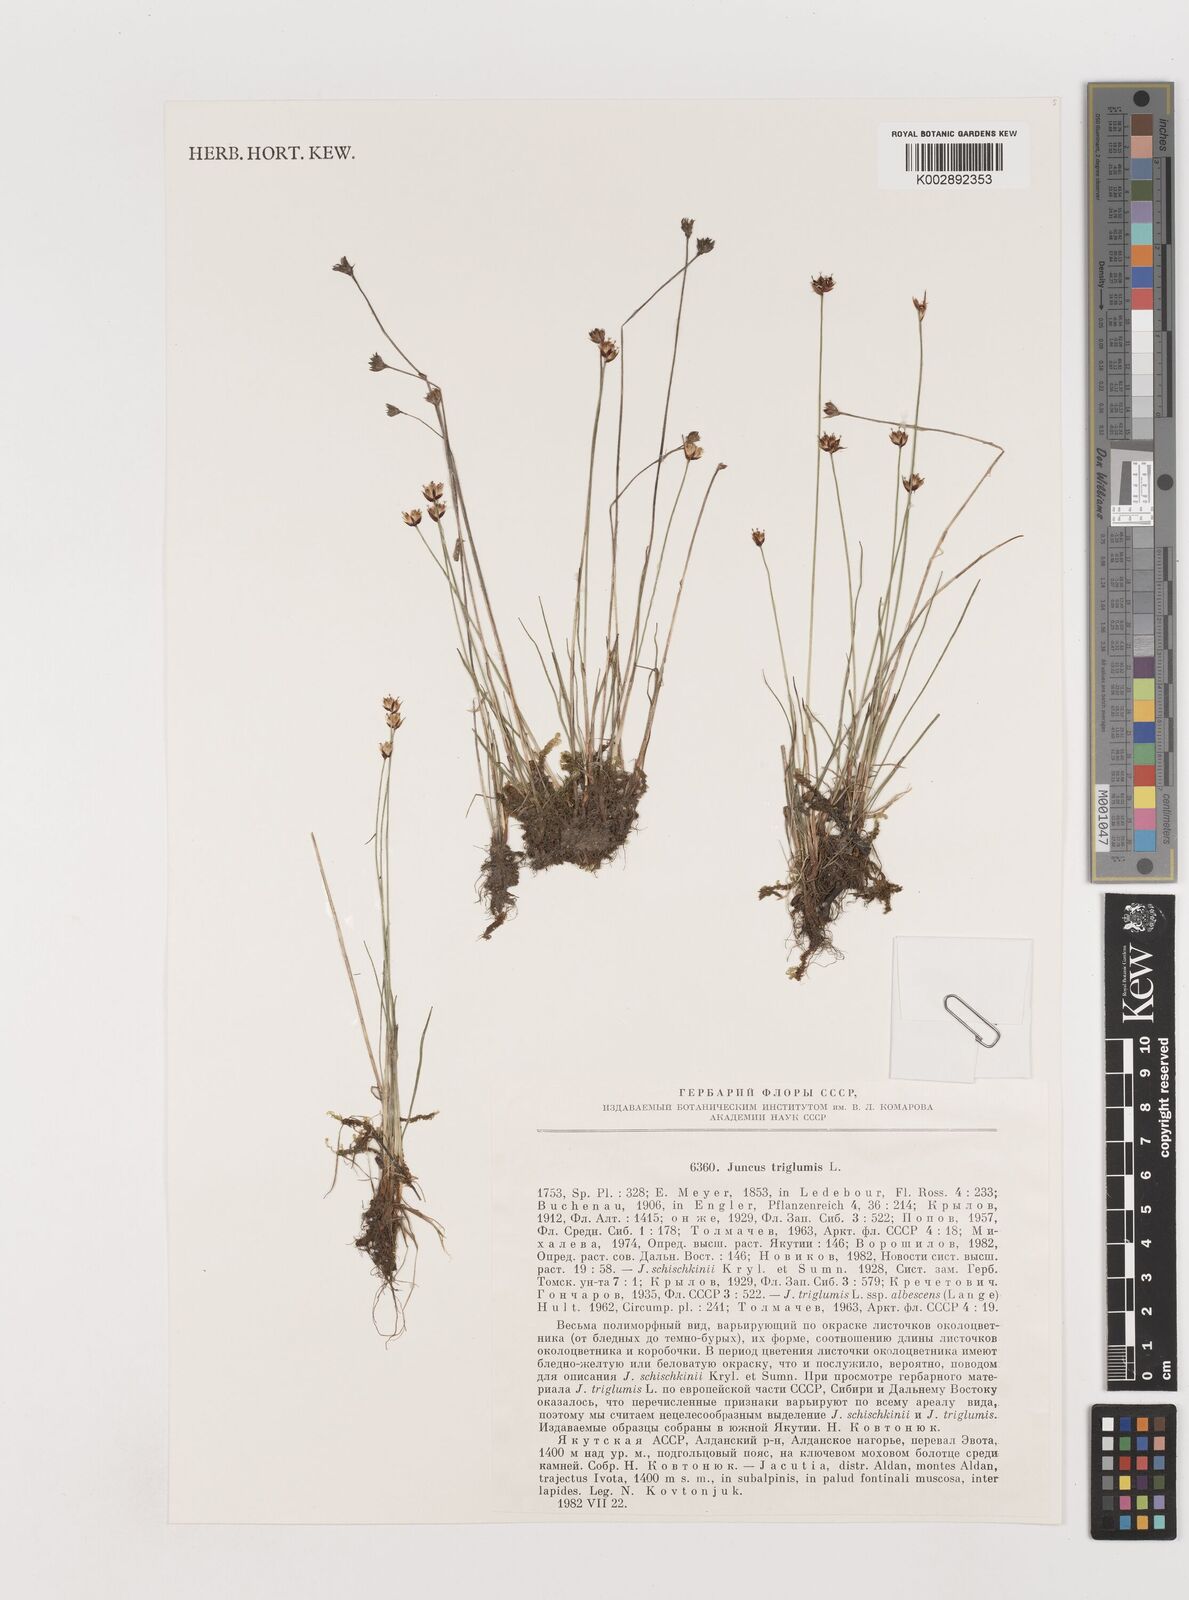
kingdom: Plantae
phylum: Tracheophyta
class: Liliopsida
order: Poales
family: Juncaceae
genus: Juncus
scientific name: Juncus triglumis
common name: Three-flowered rush
